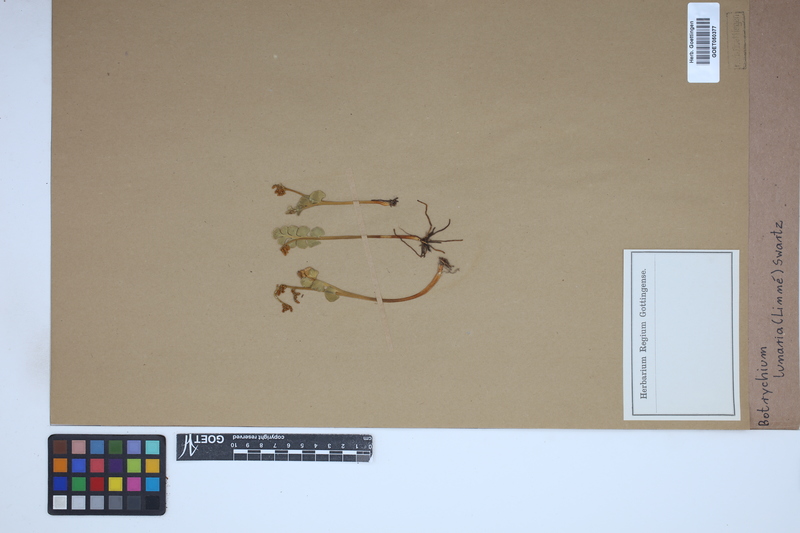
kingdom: Plantae
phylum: Tracheophyta
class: Polypodiopsida
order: Ophioglossales
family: Ophioglossaceae
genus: Botrychium
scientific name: Botrychium lunaria
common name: Moonwort
